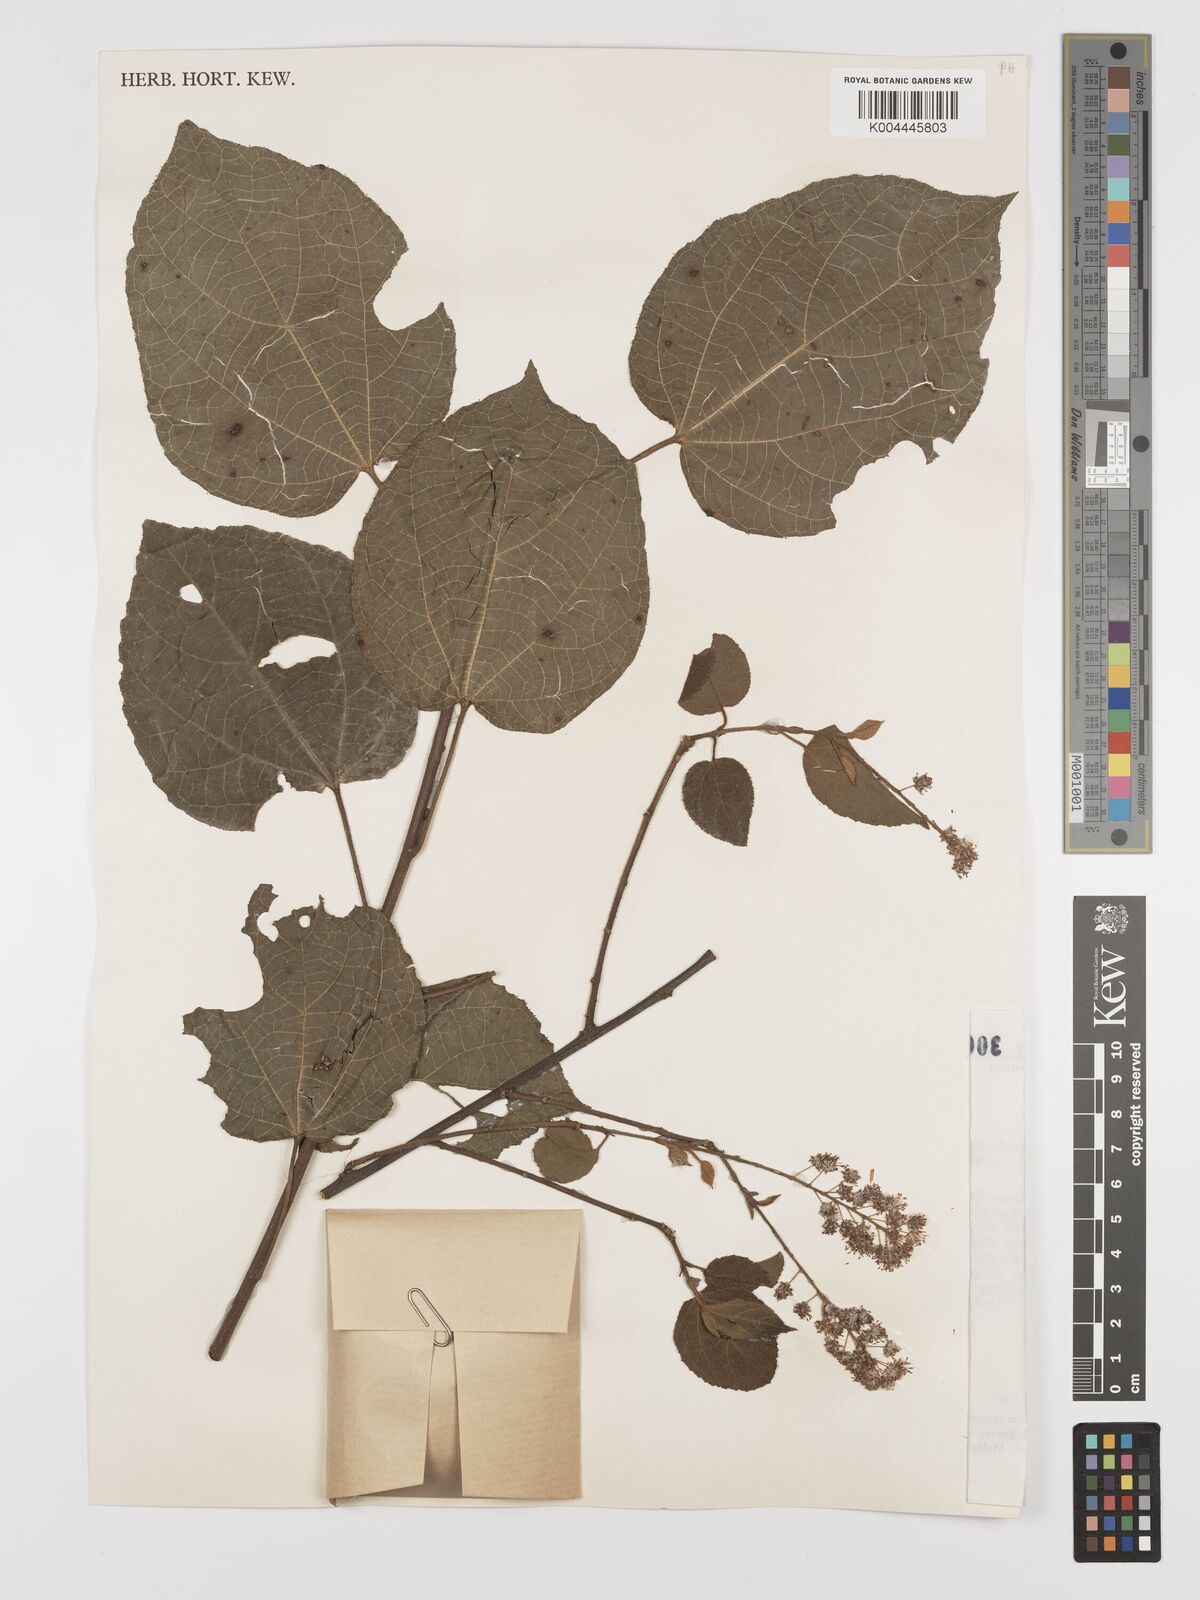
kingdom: Plantae
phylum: Tracheophyta
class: Magnoliopsida
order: Malpighiales
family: Euphorbiaceae
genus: Croton
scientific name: Croton caudatus
